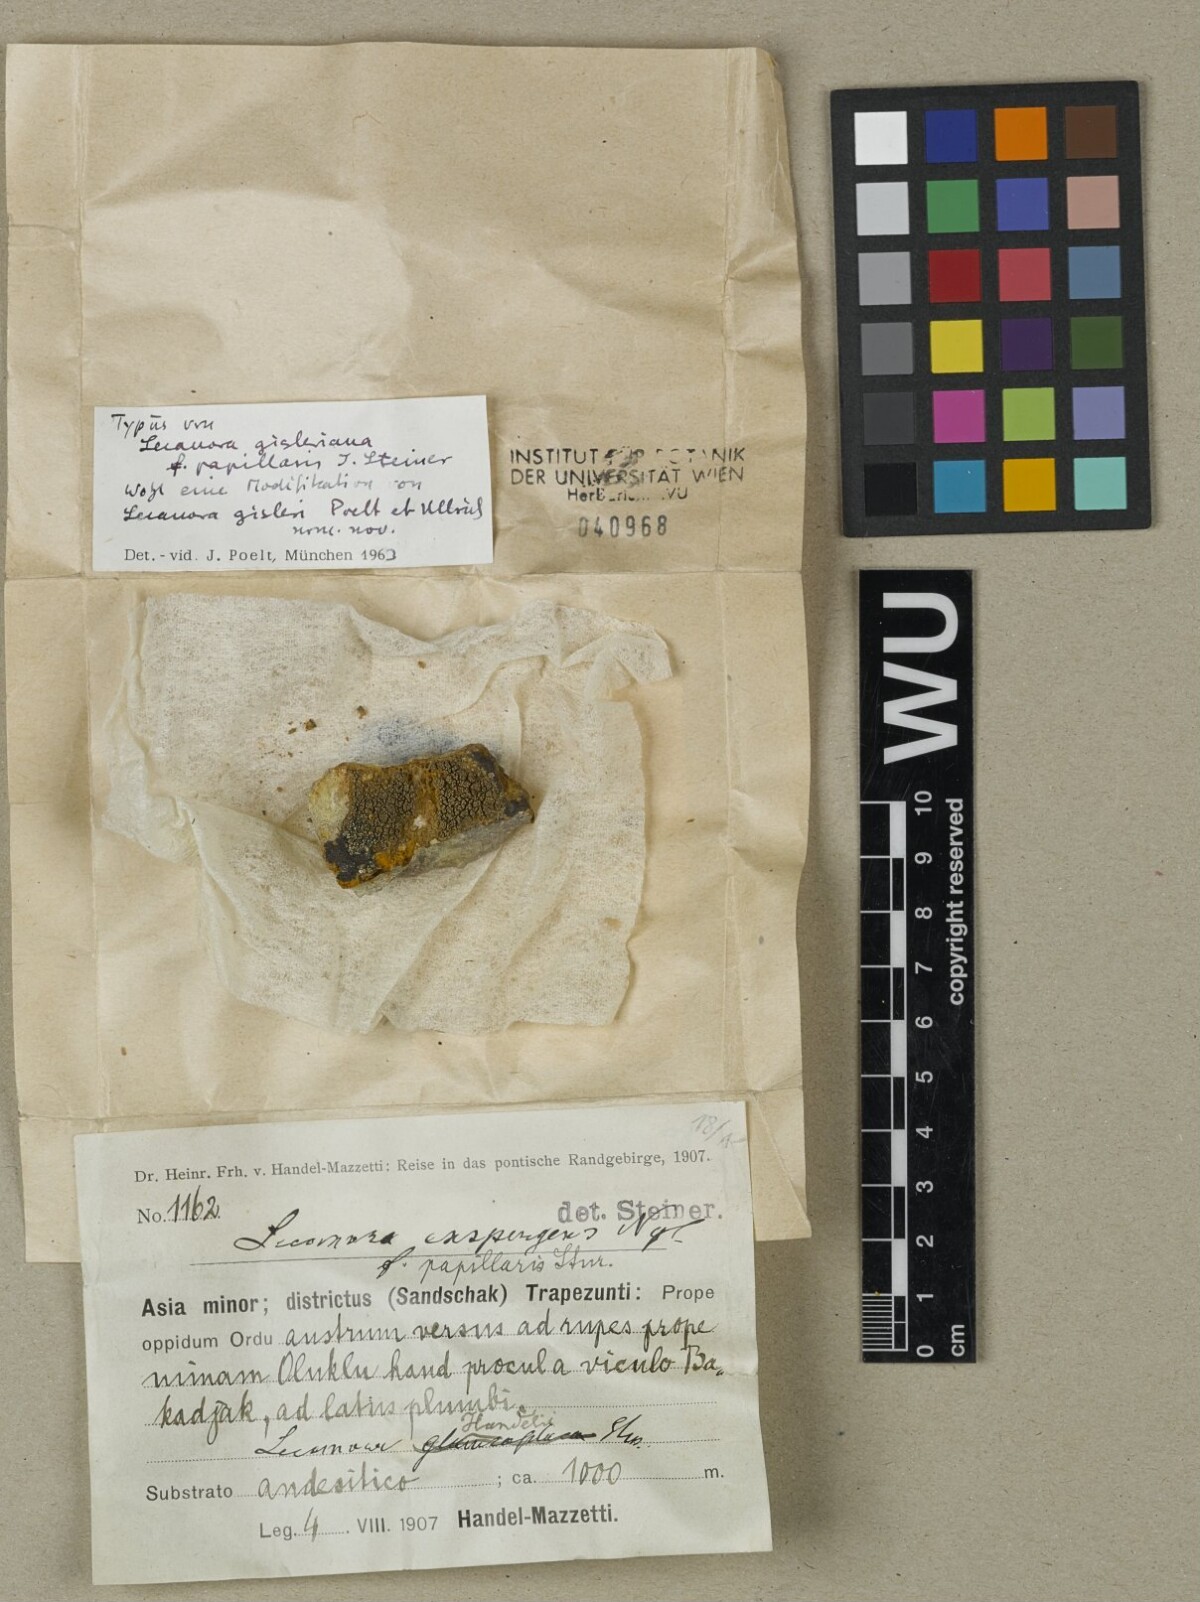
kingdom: Fungi
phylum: Ascomycota
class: Lecanoromycetes
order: Lecanorales
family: Lecanoraceae
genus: Lecanora
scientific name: Lecanora gisleriana
